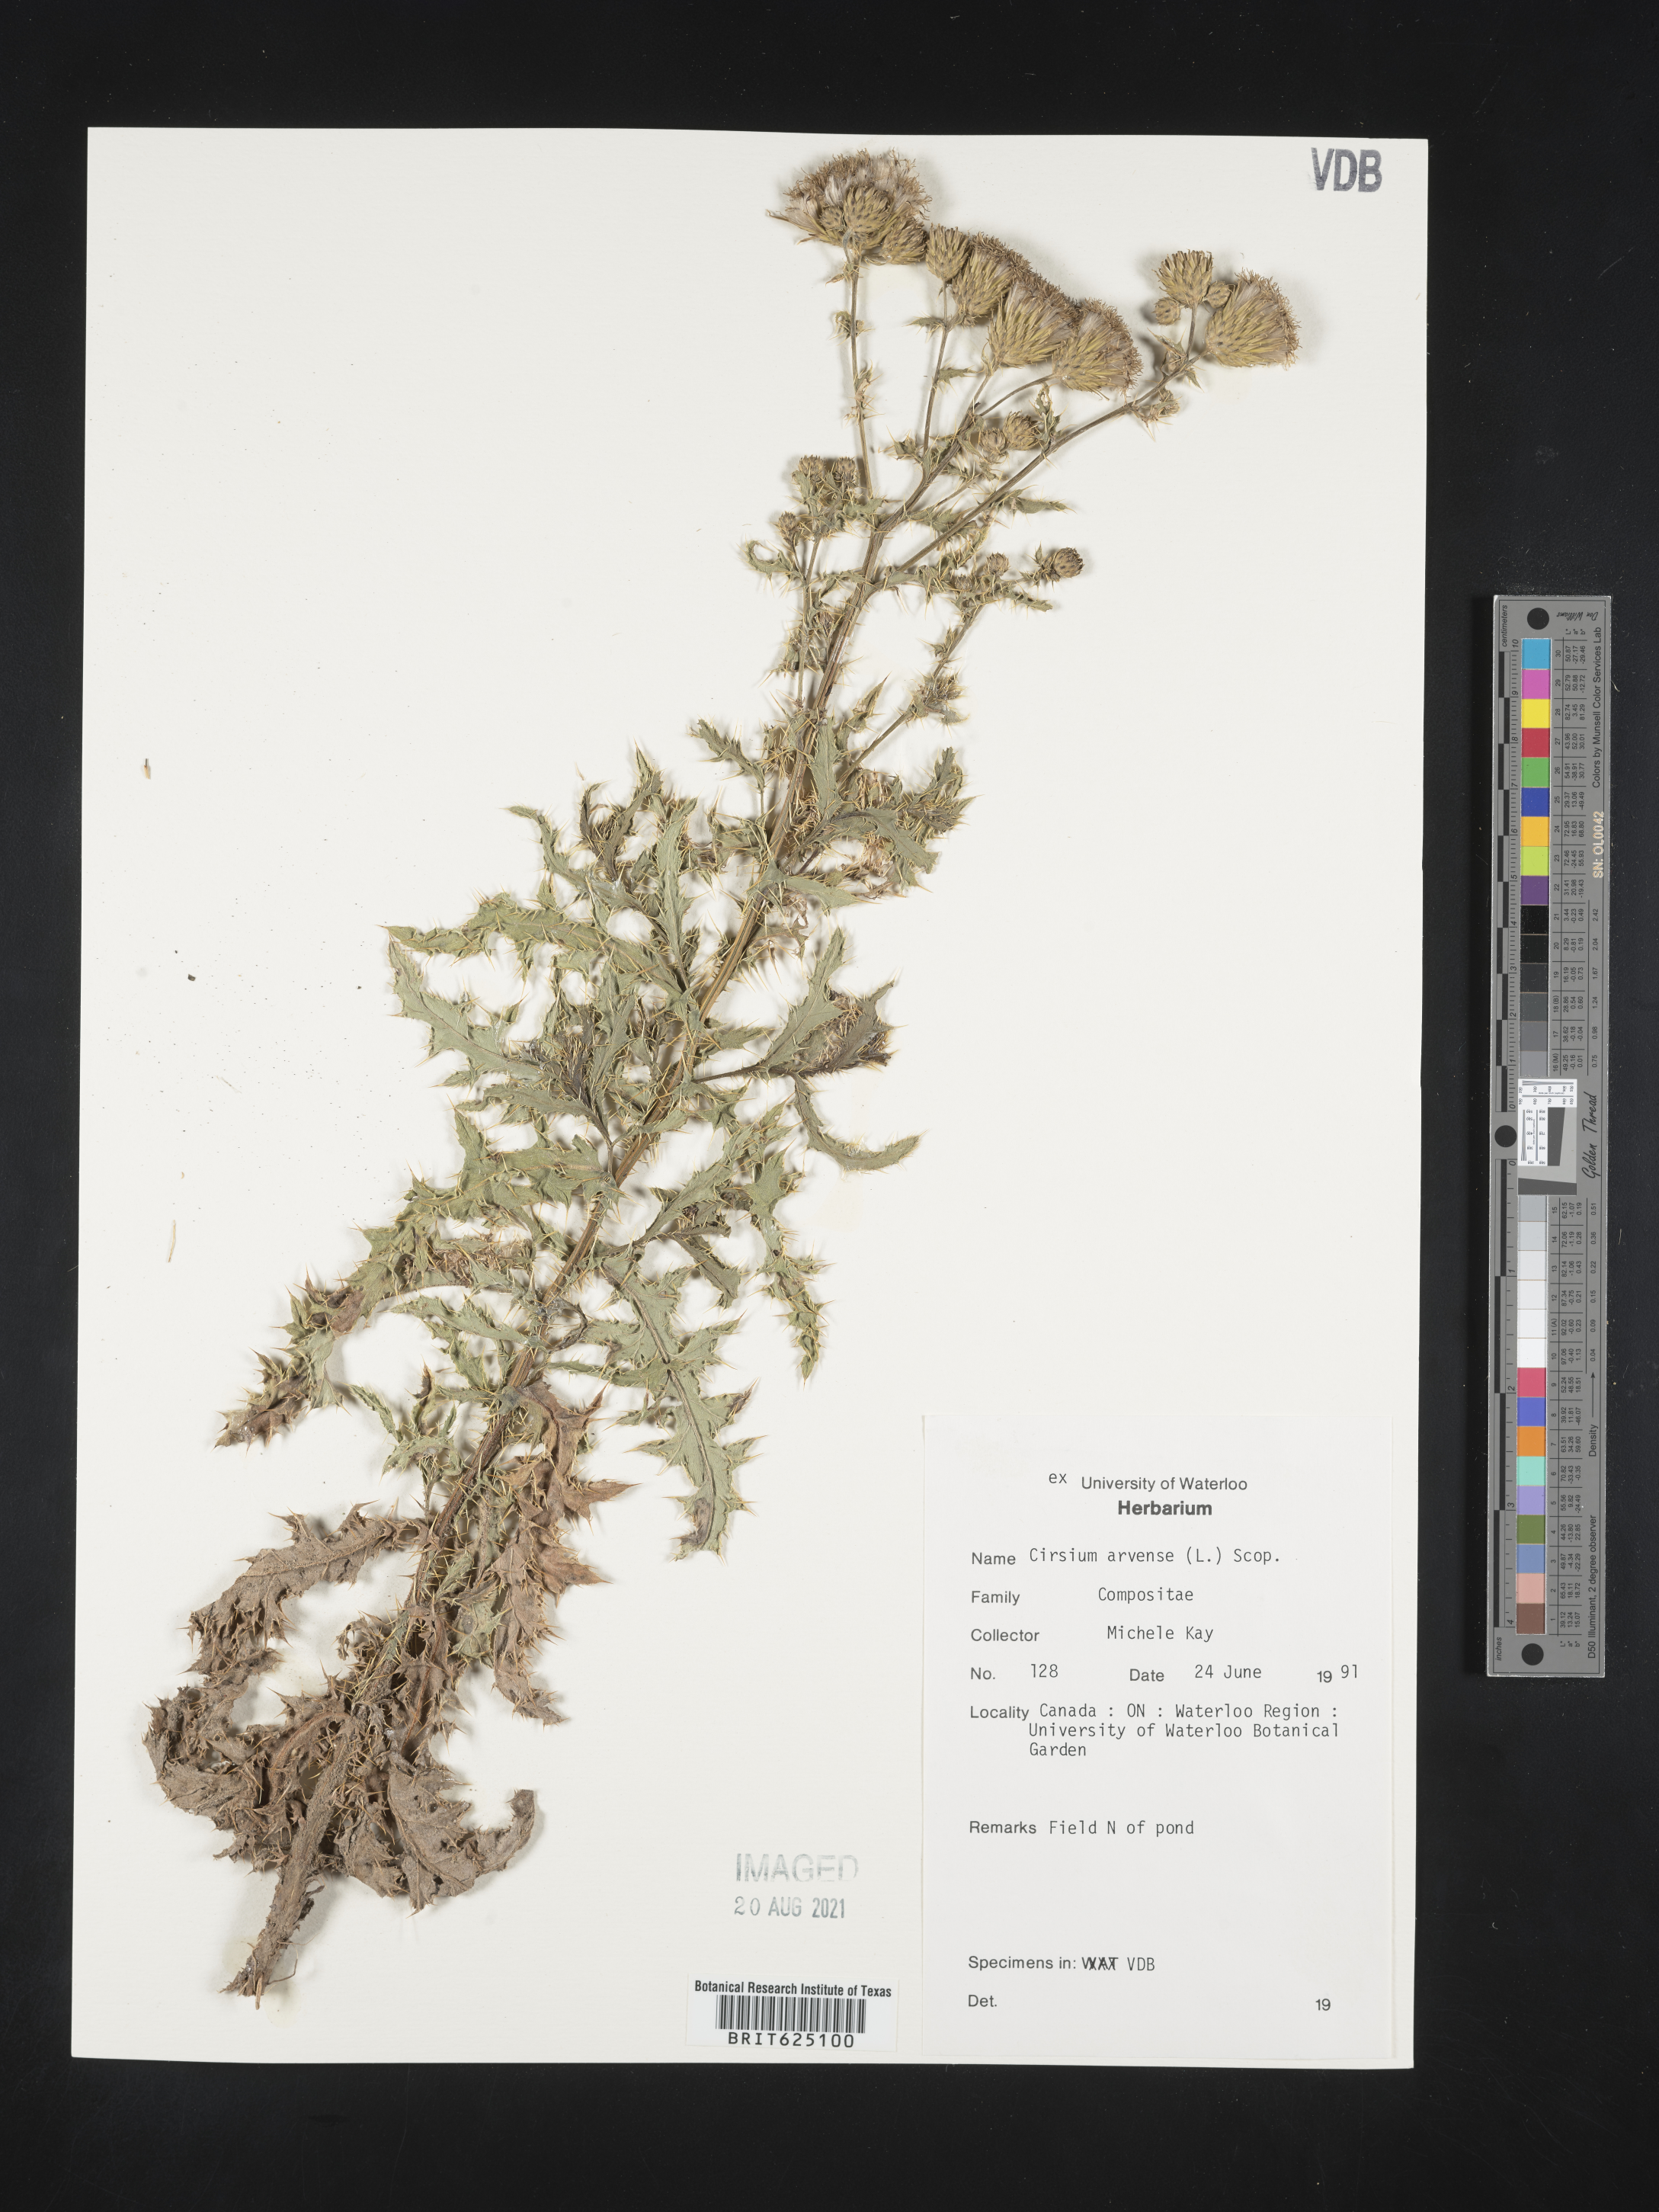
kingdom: Plantae
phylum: Tracheophyta
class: Magnoliopsida
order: Asterales
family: Asteraceae
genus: Cirsium
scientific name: Cirsium arvense
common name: Creeping thistle
